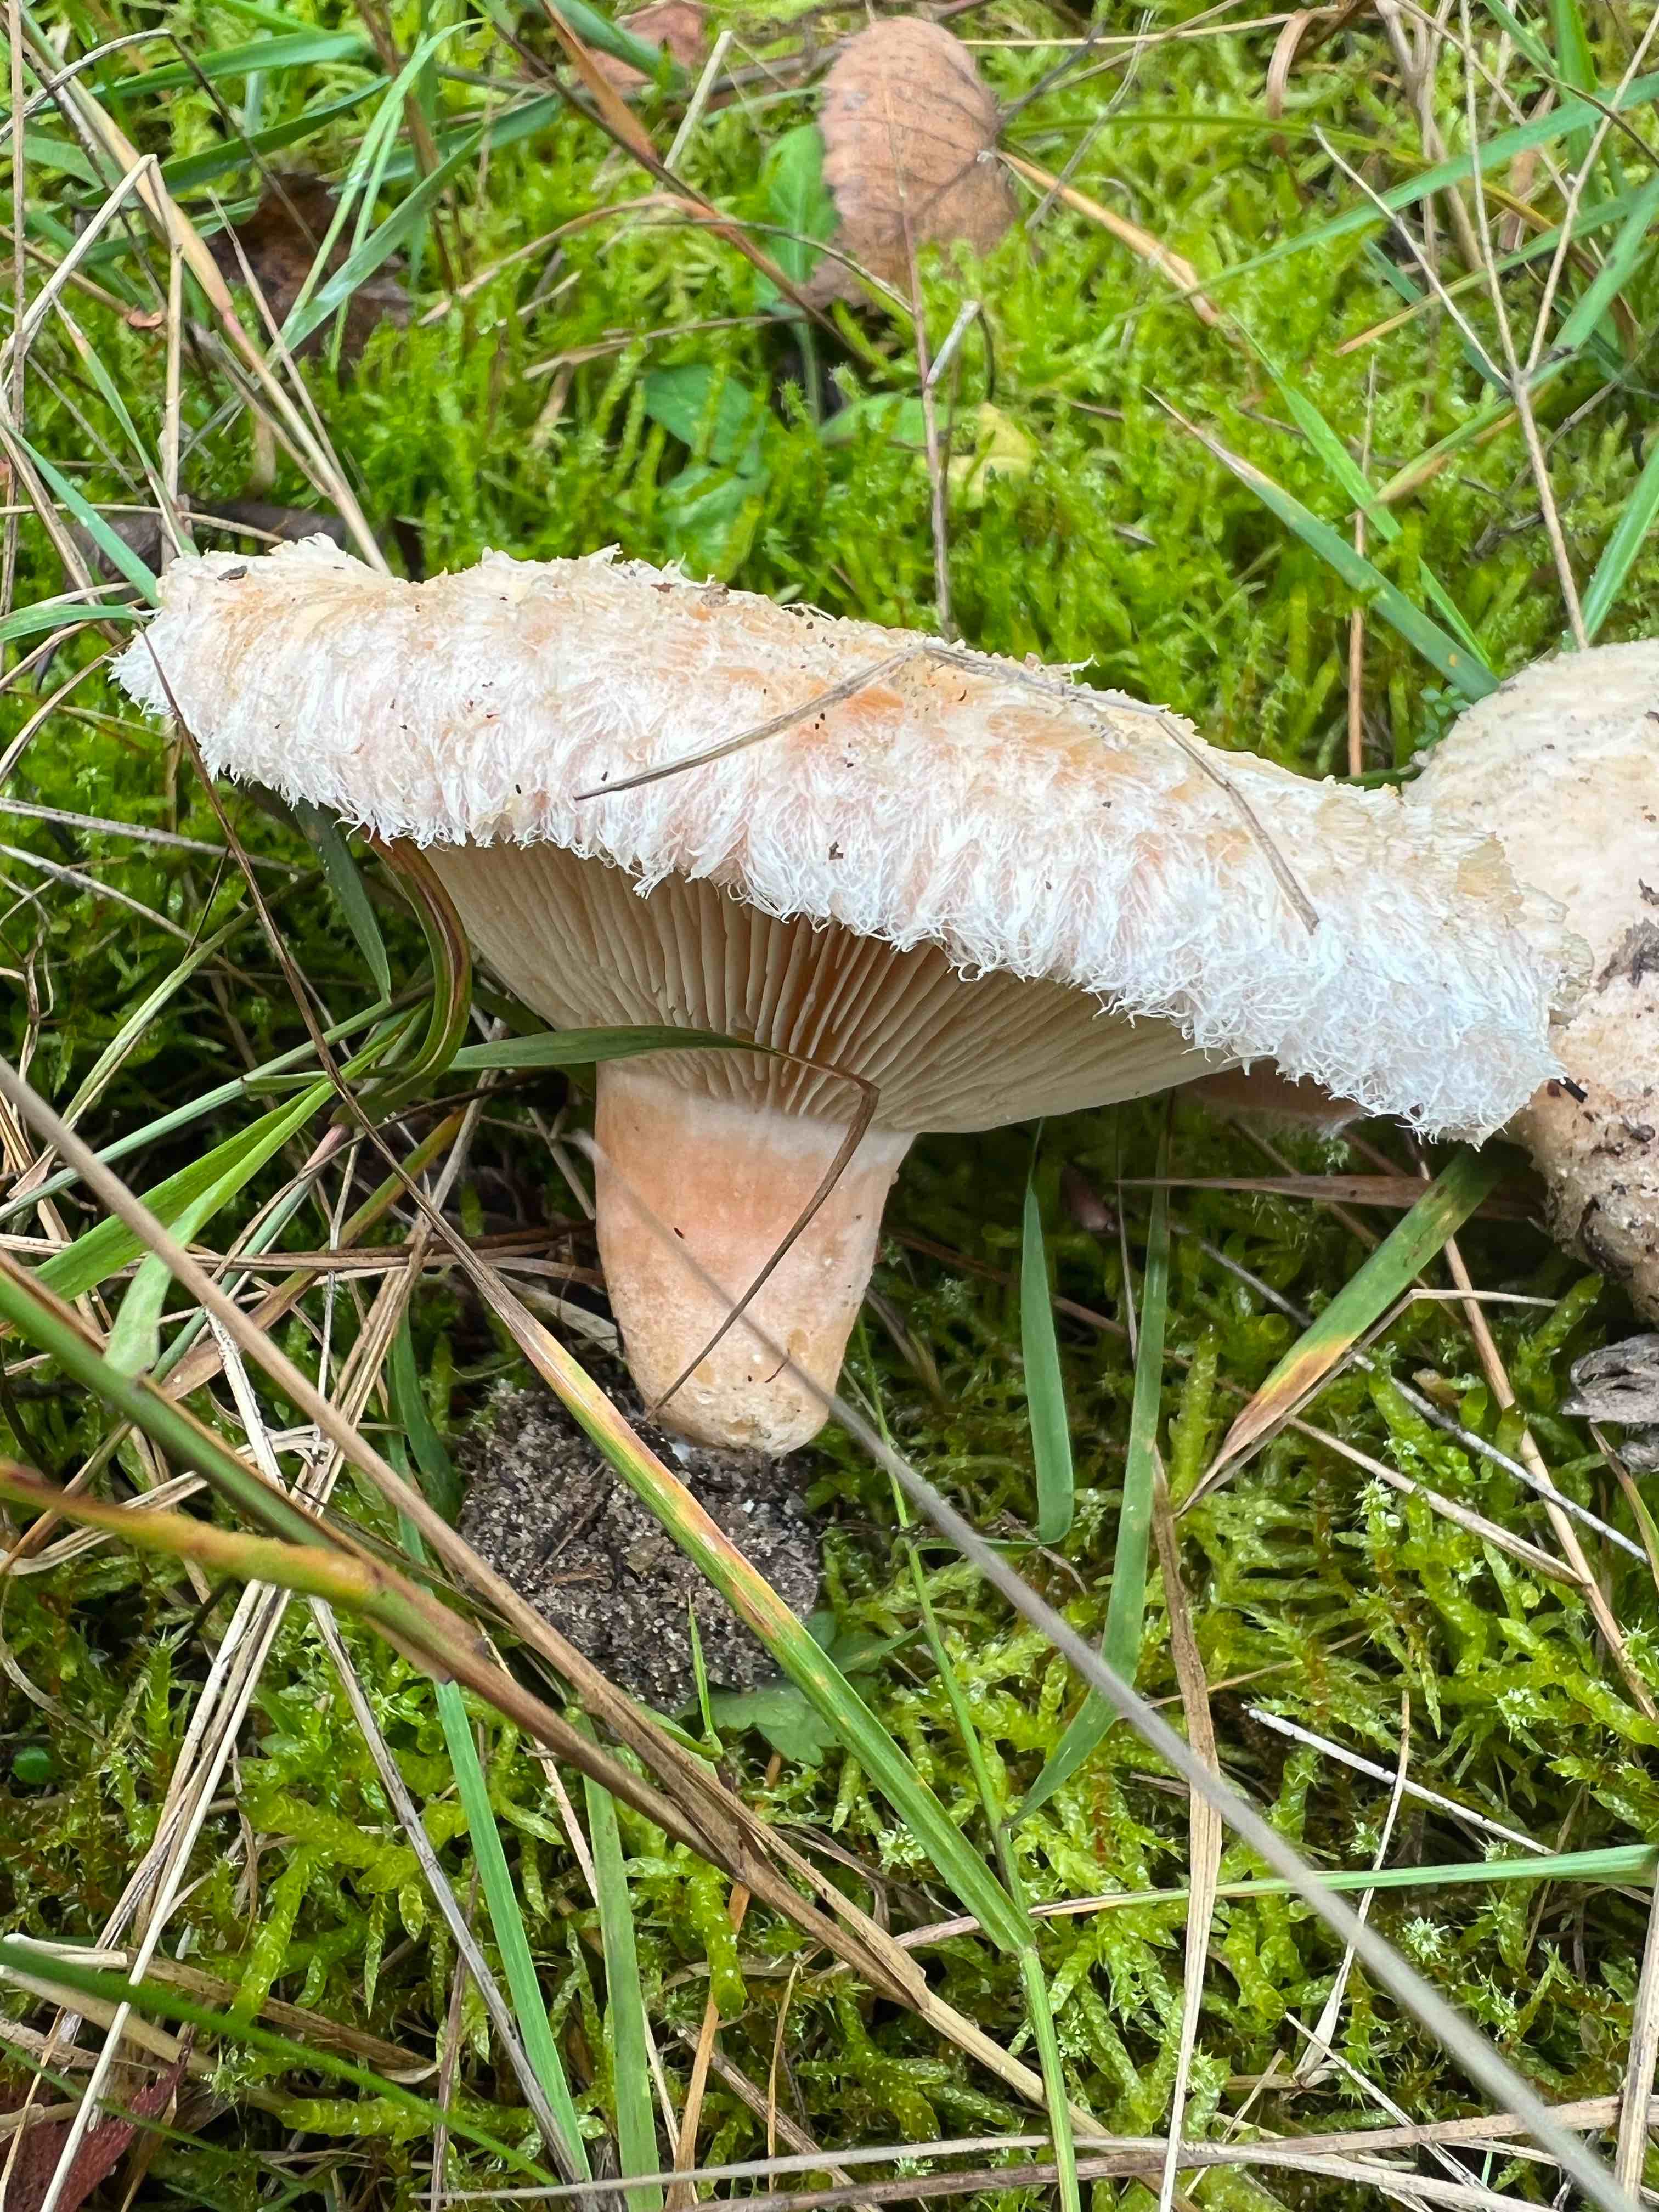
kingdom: Fungi
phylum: Basidiomycota
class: Agaricomycetes
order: Russulales
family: Russulaceae
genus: Lactarius
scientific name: Lactarius pubescens
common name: dunet mælkehat
